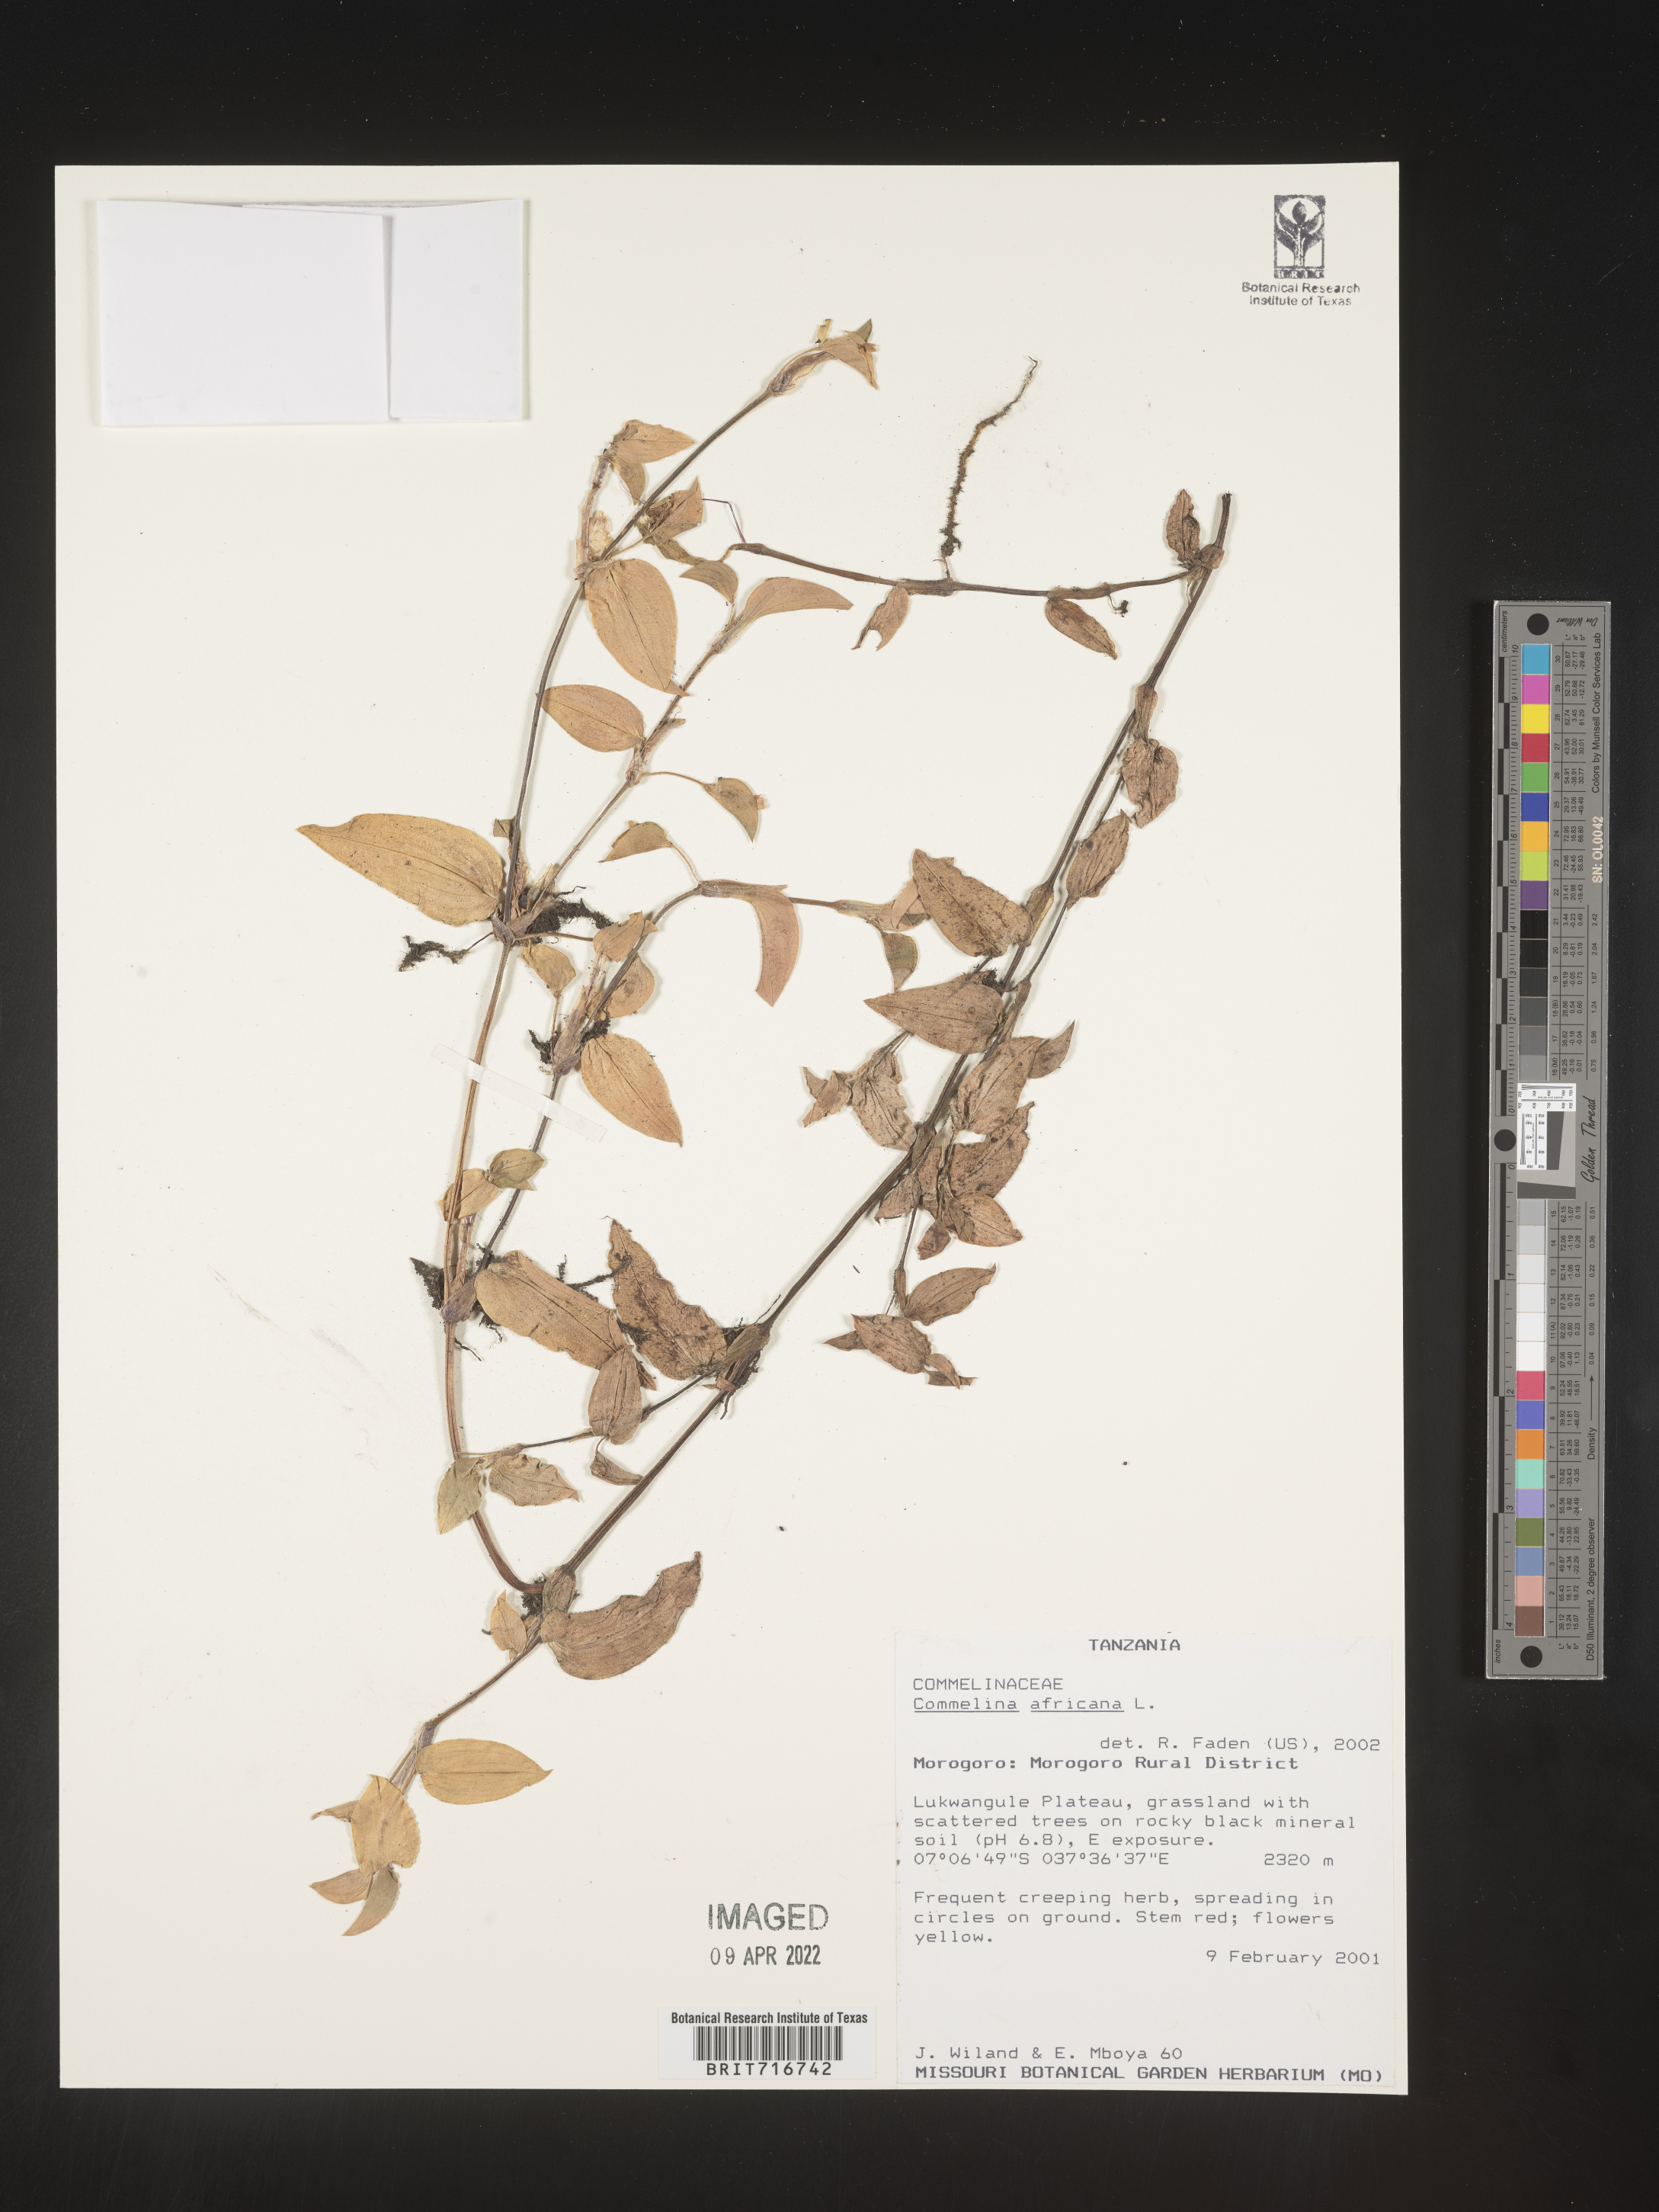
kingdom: Plantae
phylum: Tracheophyta
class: Liliopsida
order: Commelinales
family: Commelinaceae
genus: Commelina
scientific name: Commelina
